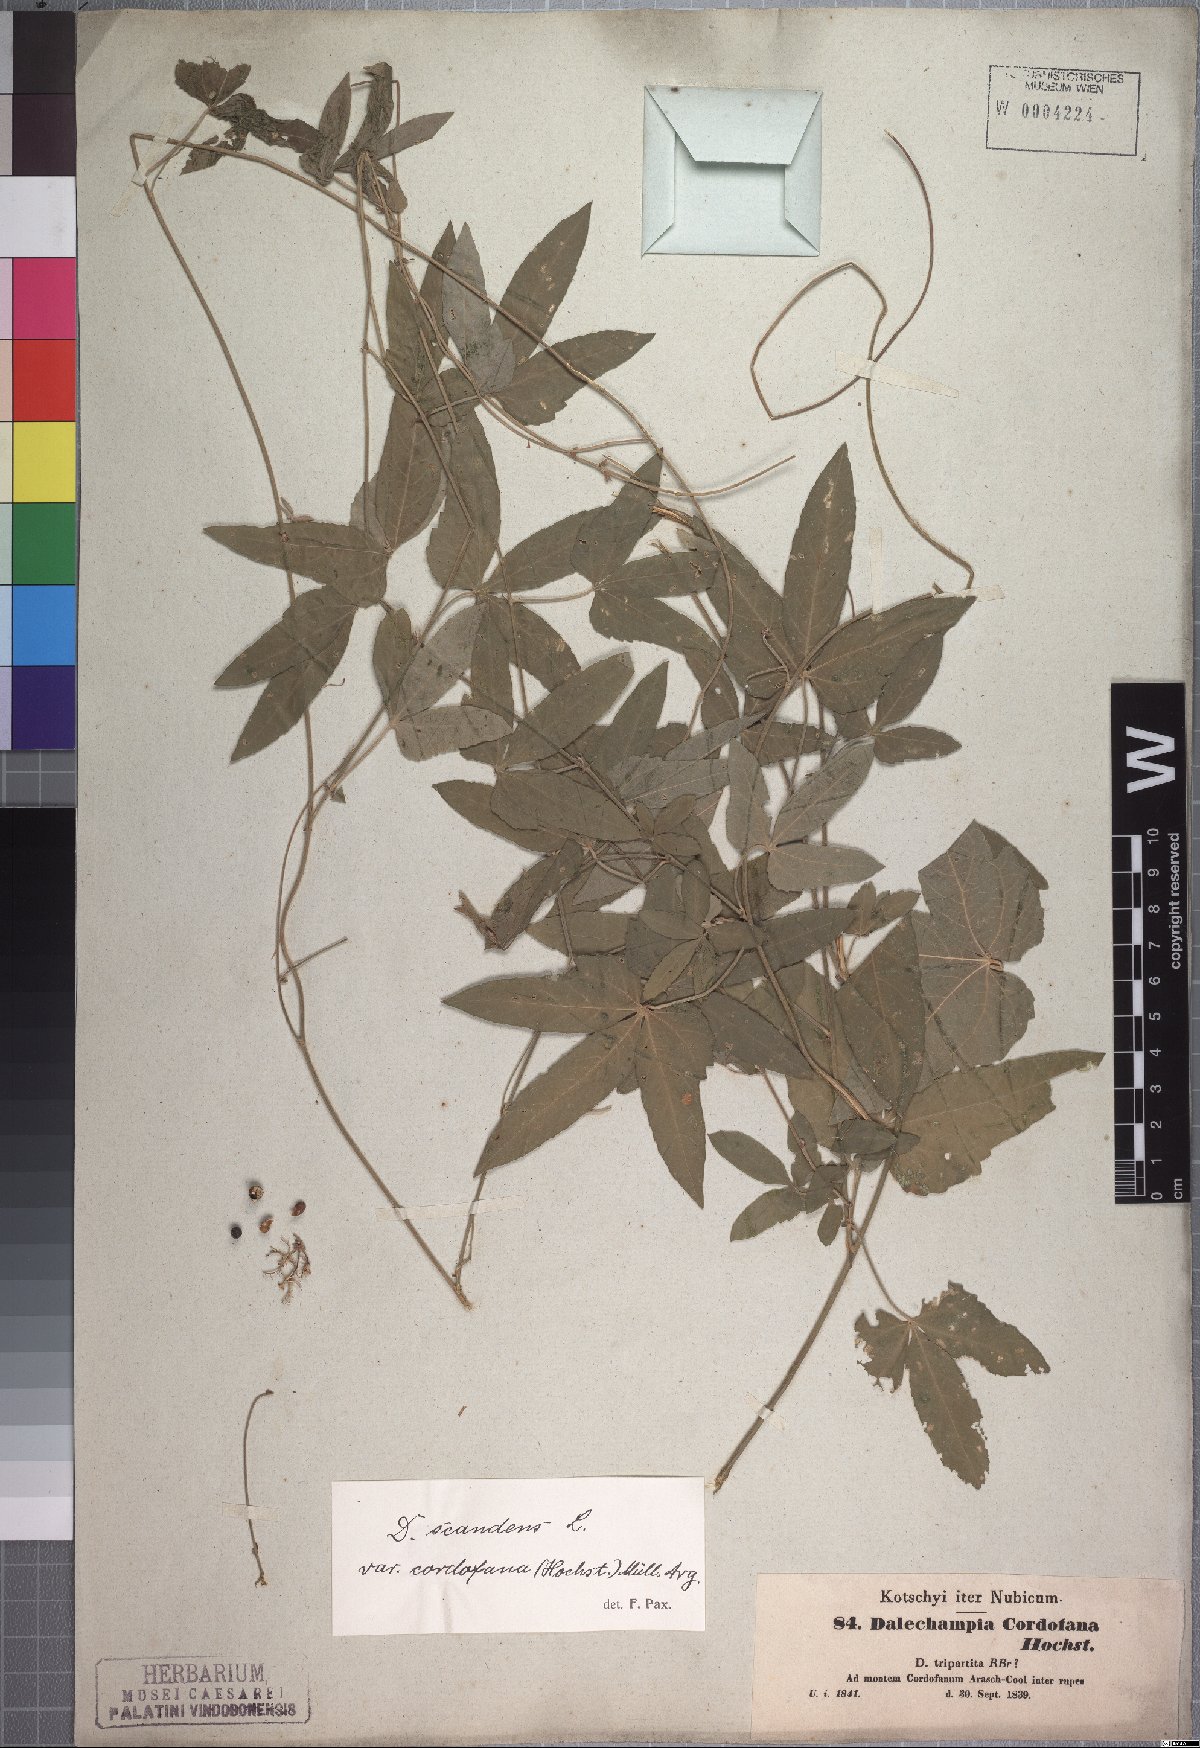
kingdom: Plantae
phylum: Tracheophyta
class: Magnoliopsida
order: Malpighiales
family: Euphorbiaceae
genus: Dalechampia
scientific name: Dalechampia scandens
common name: Spurgecreeper
